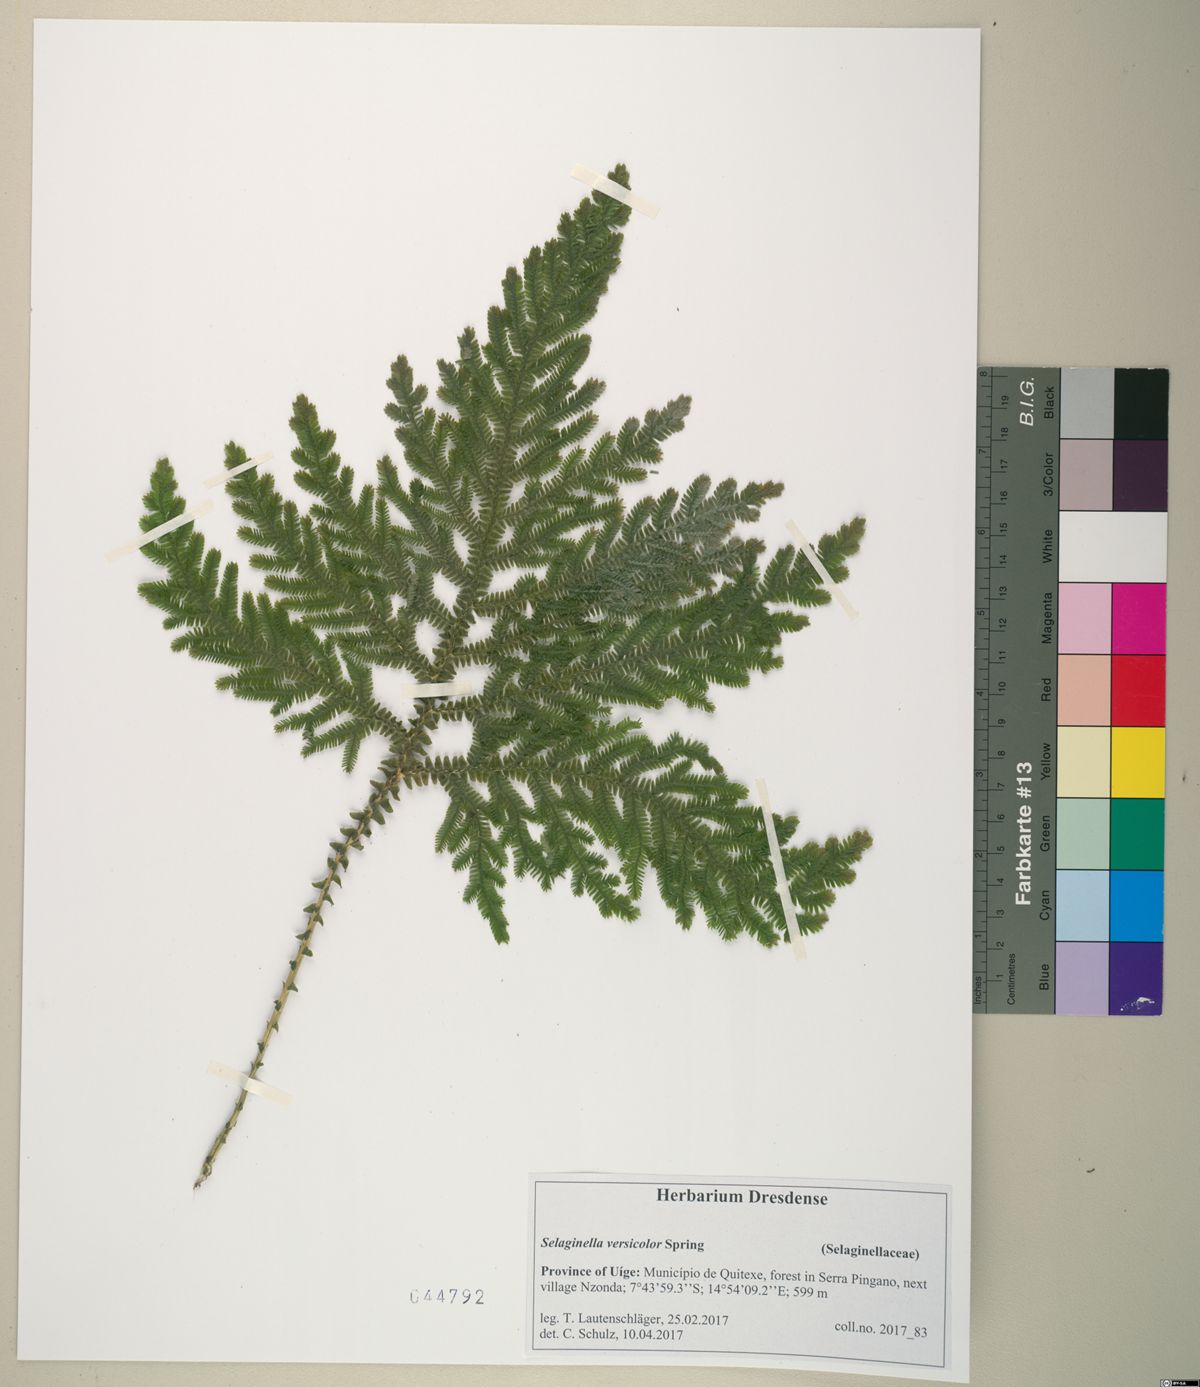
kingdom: Plantae
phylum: Tracheophyta
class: Lycopodiopsida
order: Selaginellales
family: Selaginellaceae
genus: Selaginella
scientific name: Selaginella versicolor
